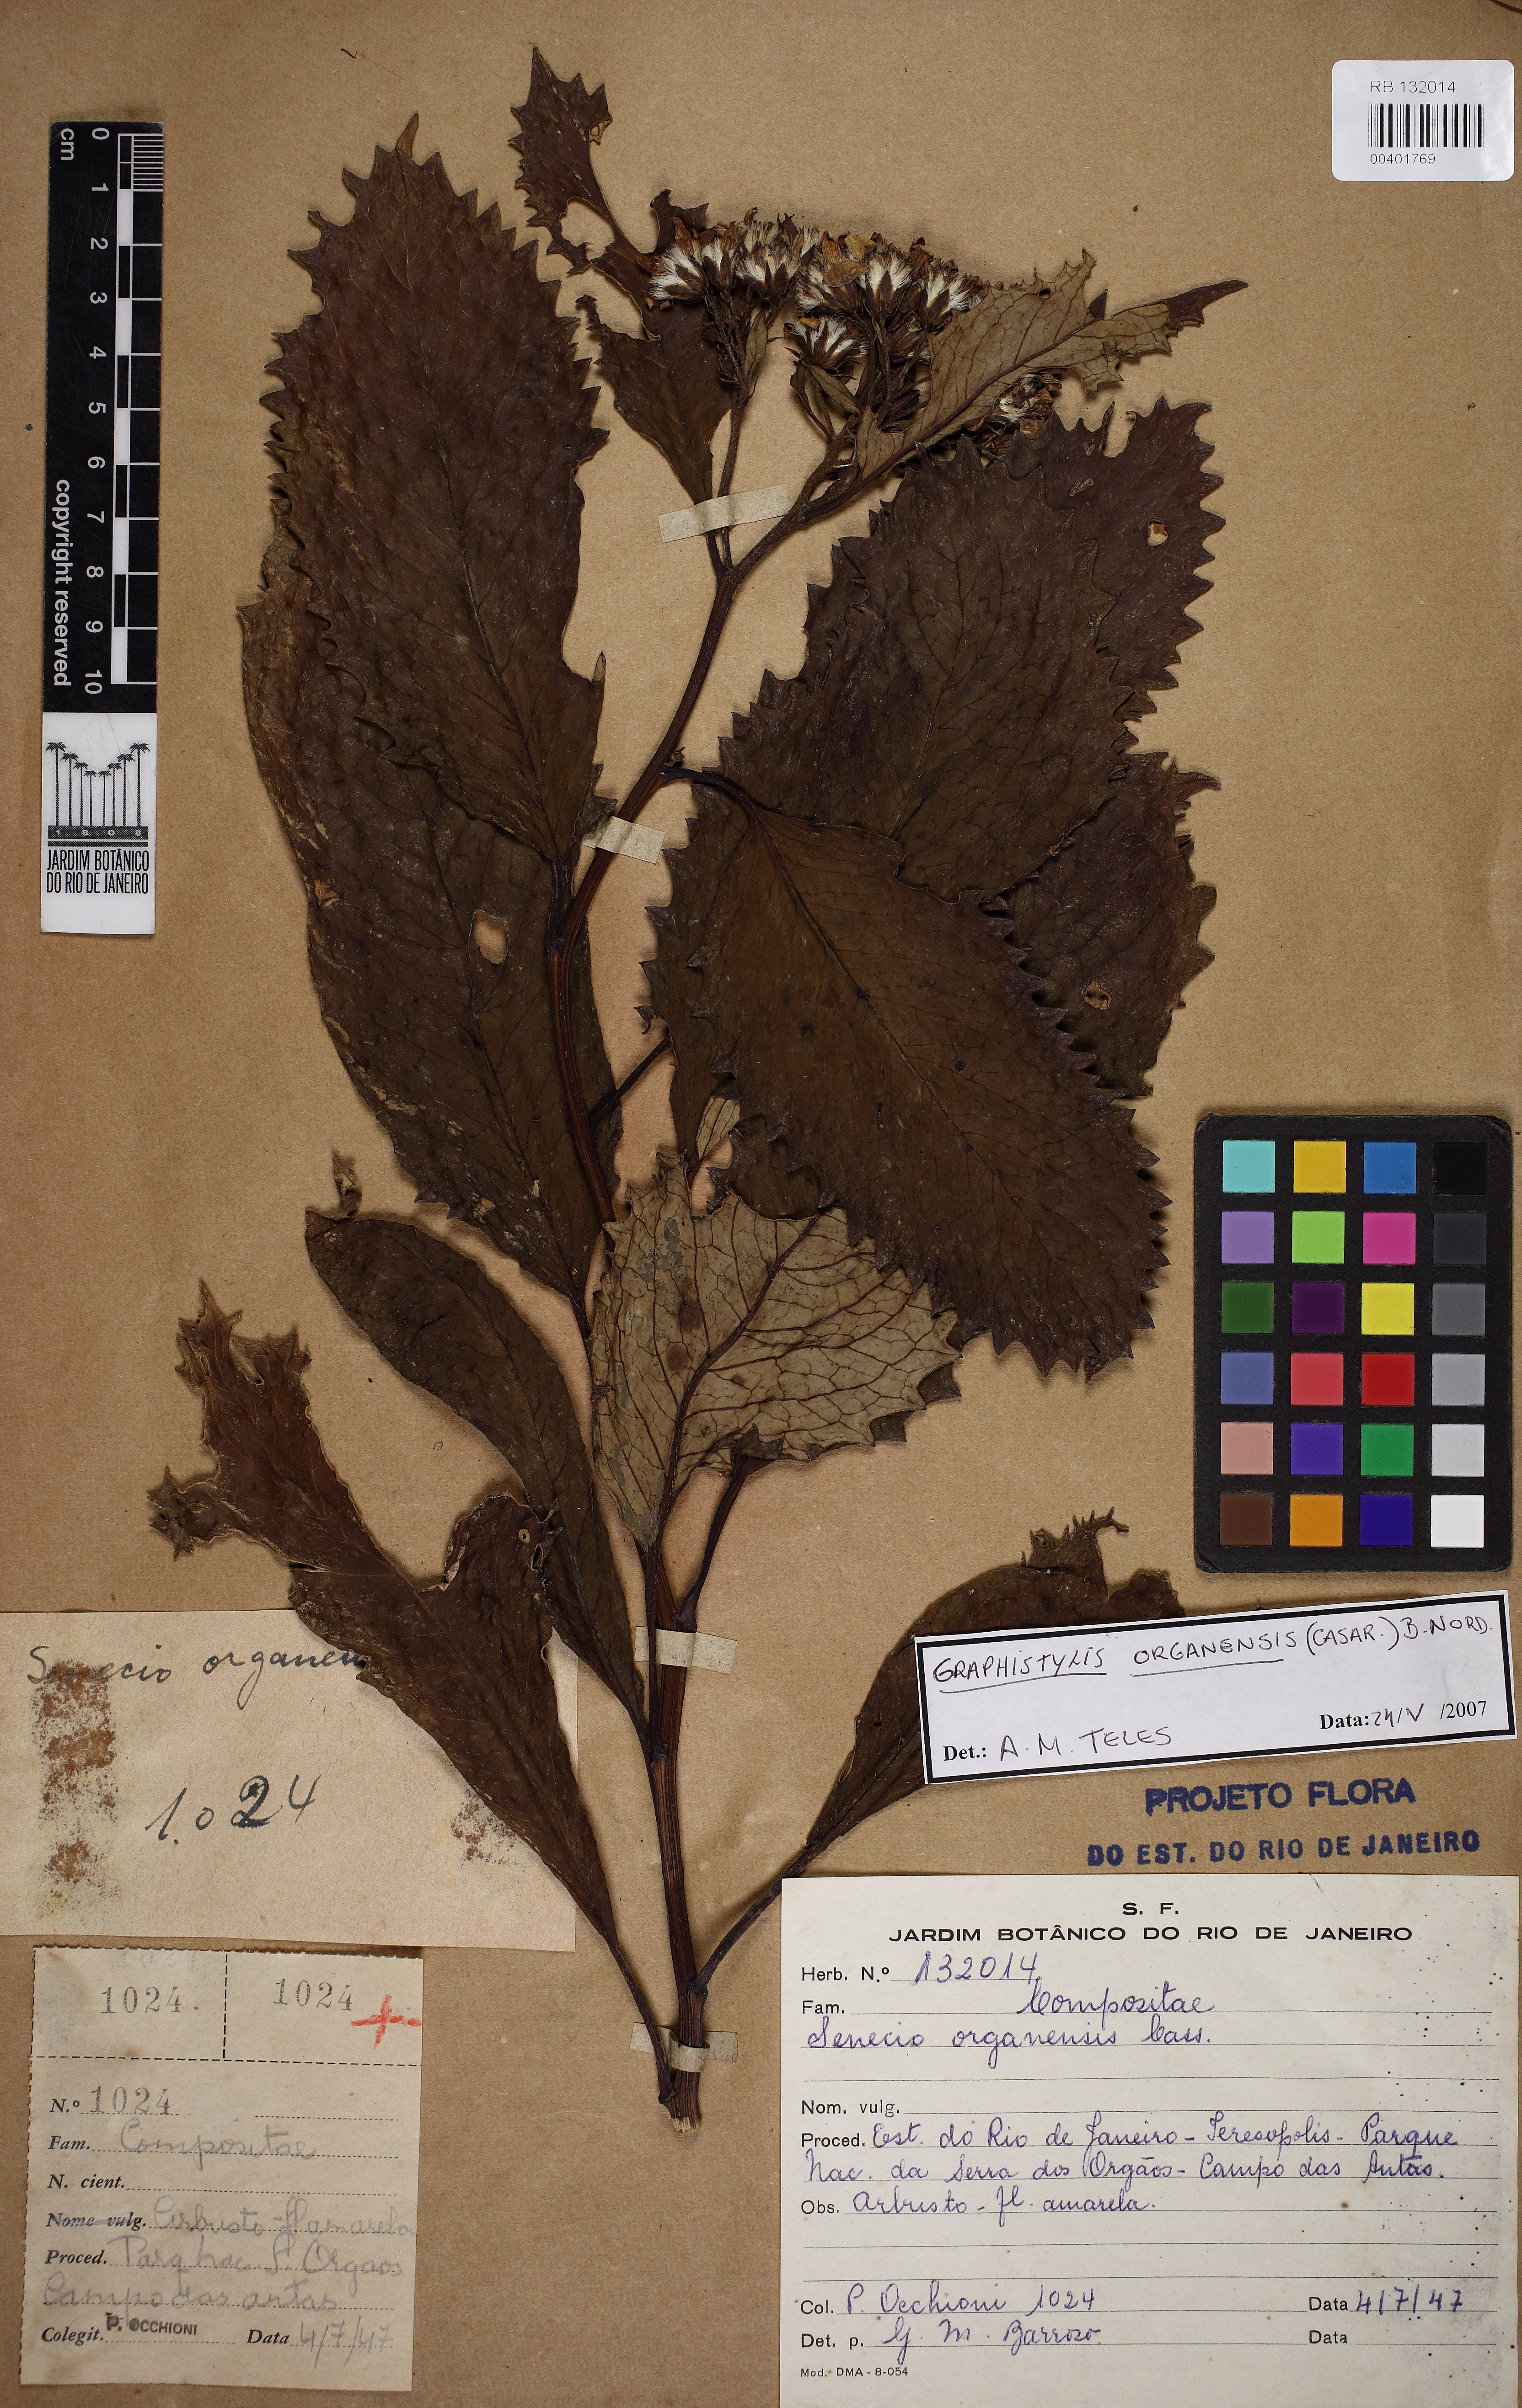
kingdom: Plantae
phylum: Tracheophyta
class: Magnoliopsida
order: Asterales
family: Asteraceae
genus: Graphistylis
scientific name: Graphistylis organensis
